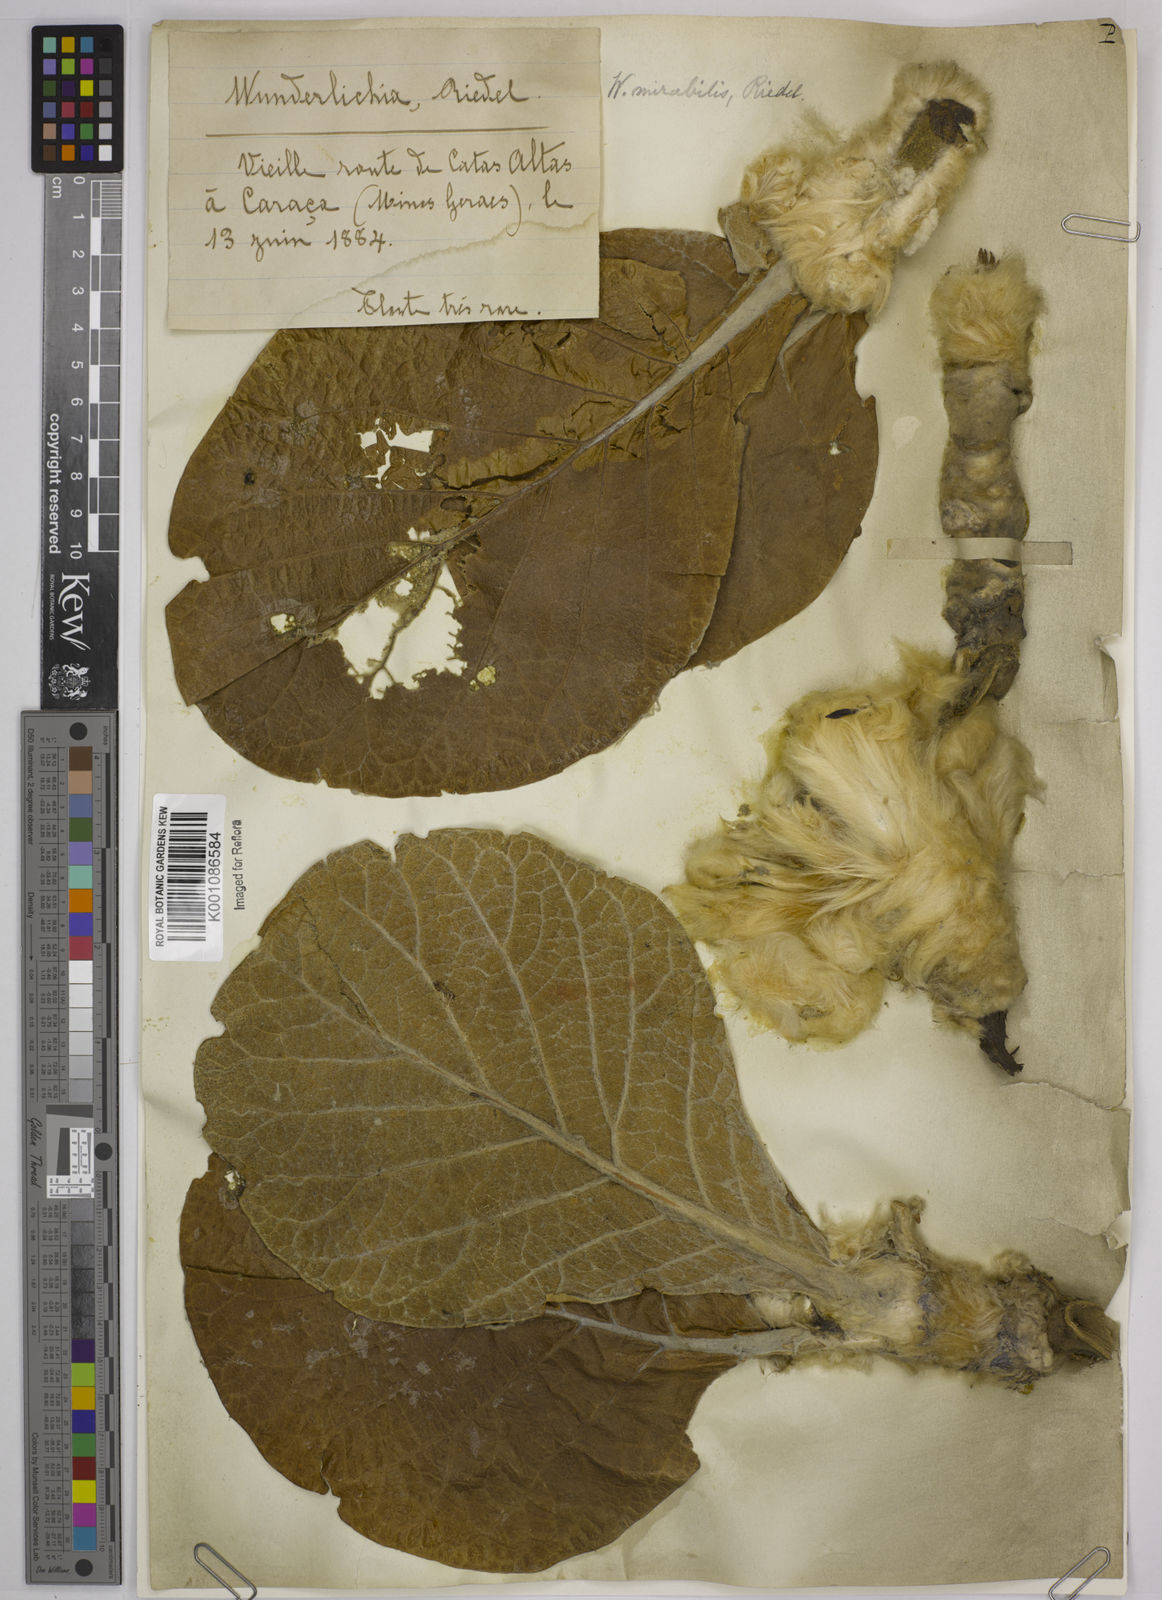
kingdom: Plantae
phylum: Tracheophyta
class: Magnoliopsida
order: Asterales
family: Asteraceae
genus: Wunderlichia
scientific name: Wunderlichia mirabilis
